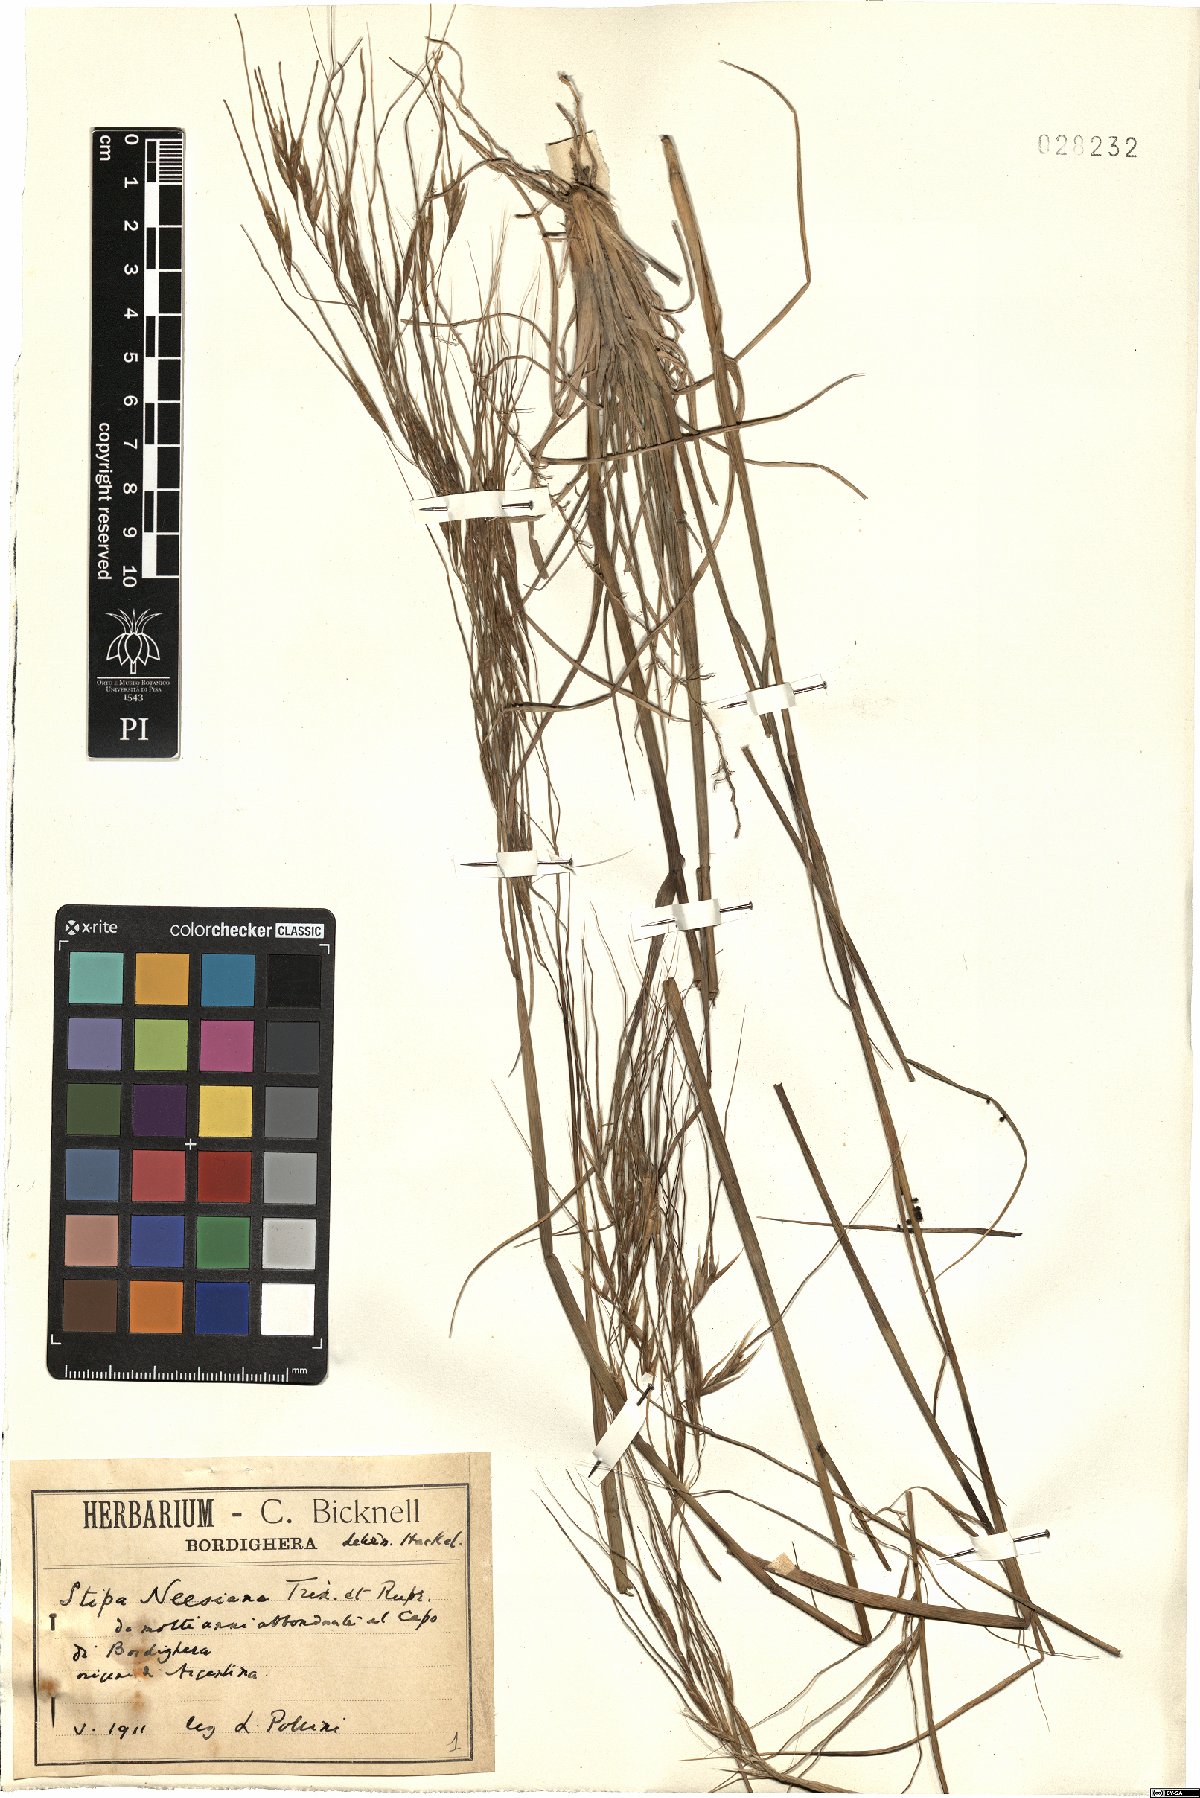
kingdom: Plantae
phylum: Tracheophyta
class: Liliopsida
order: Poales
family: Poaceae
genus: Nassella
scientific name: Nassella neesiana
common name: American needle-grass
